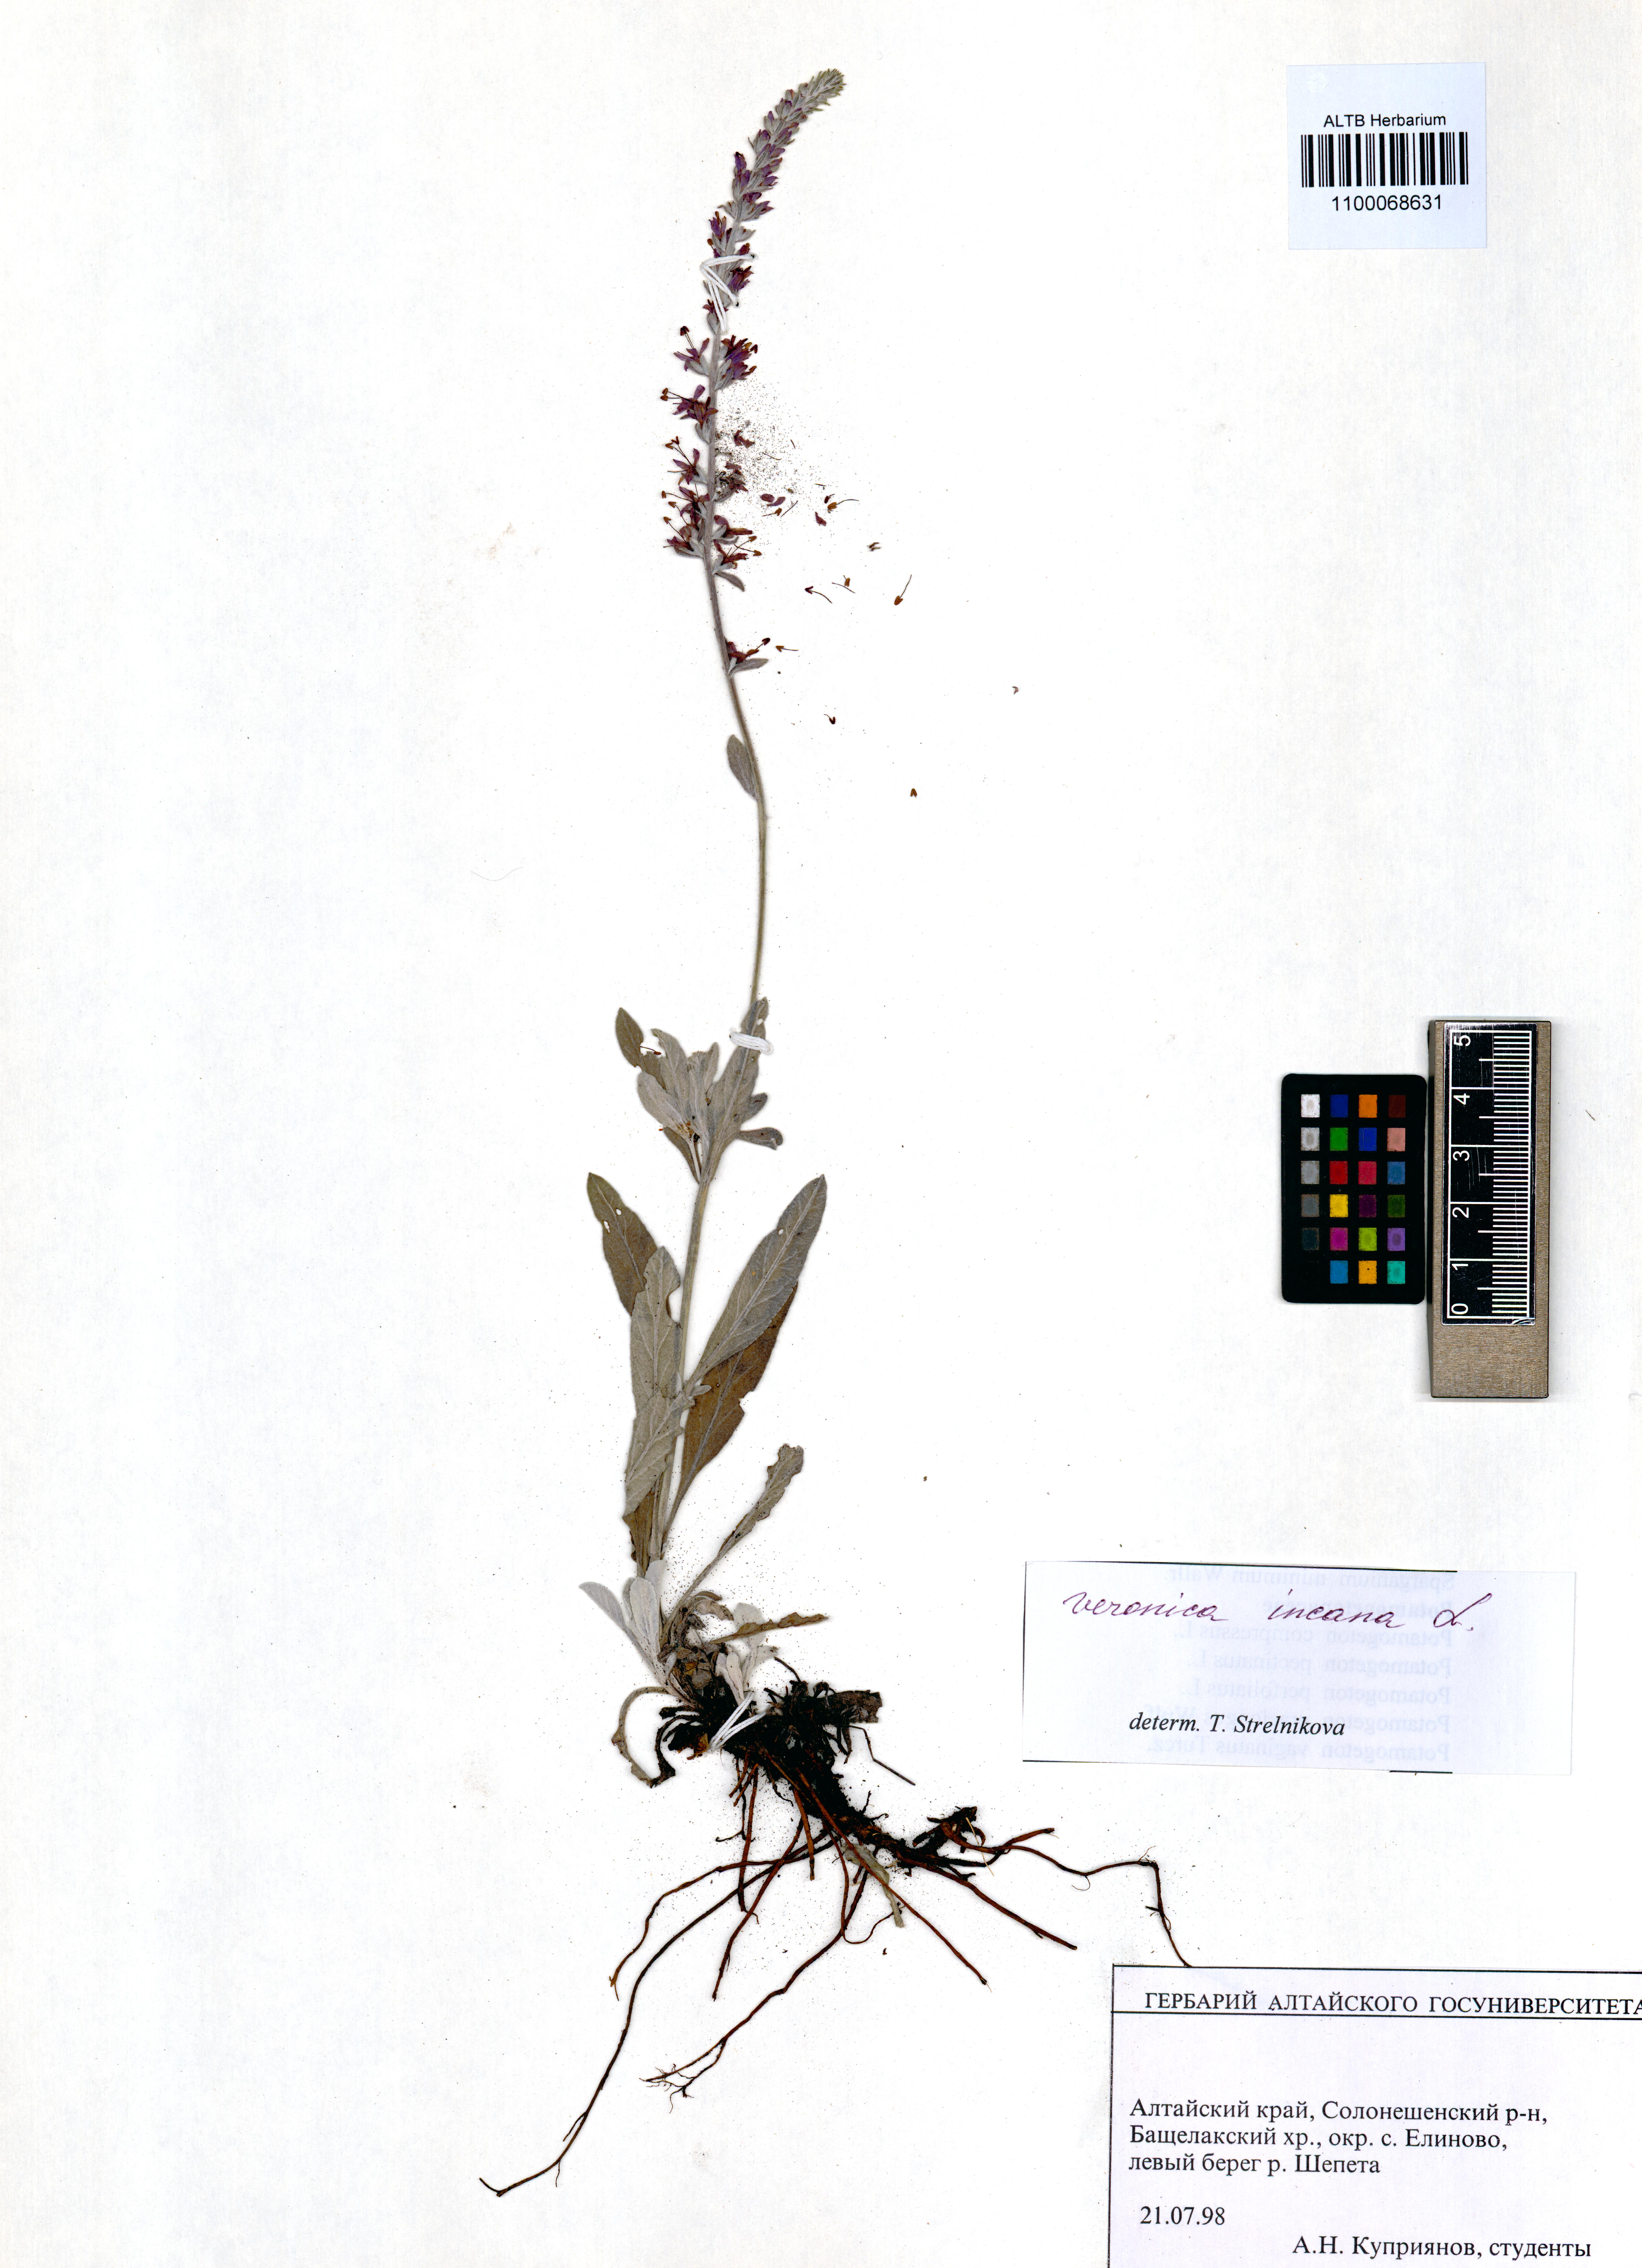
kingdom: Plantae
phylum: Tracheophyta
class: Magnoliopsida
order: Lamiales
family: Plantaginaceae
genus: Veronica
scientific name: Veronica incana
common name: Silver speedwell
